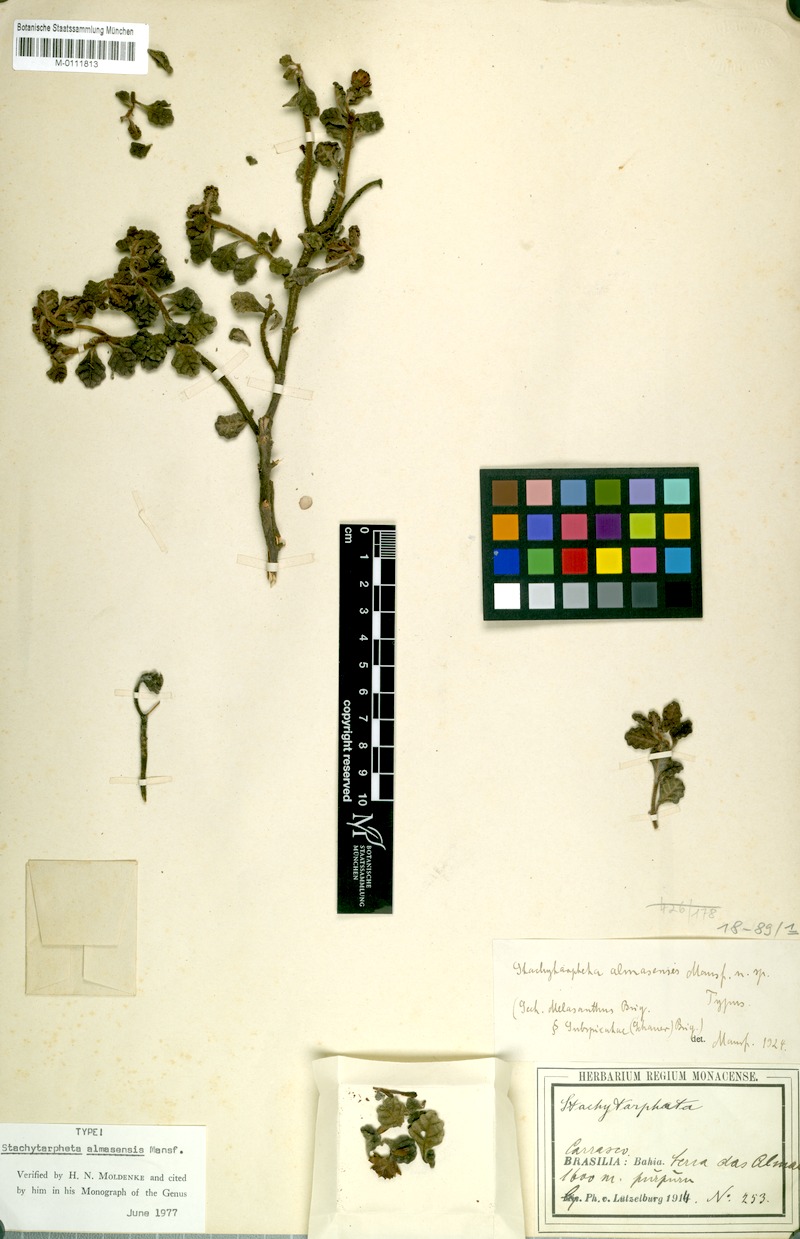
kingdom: Plantae
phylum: Tracheophyta
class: Magnoliopsida
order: Lamiales
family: Verbenaceae
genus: Stachytarpheta
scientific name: Stachytarpheta almasensis
